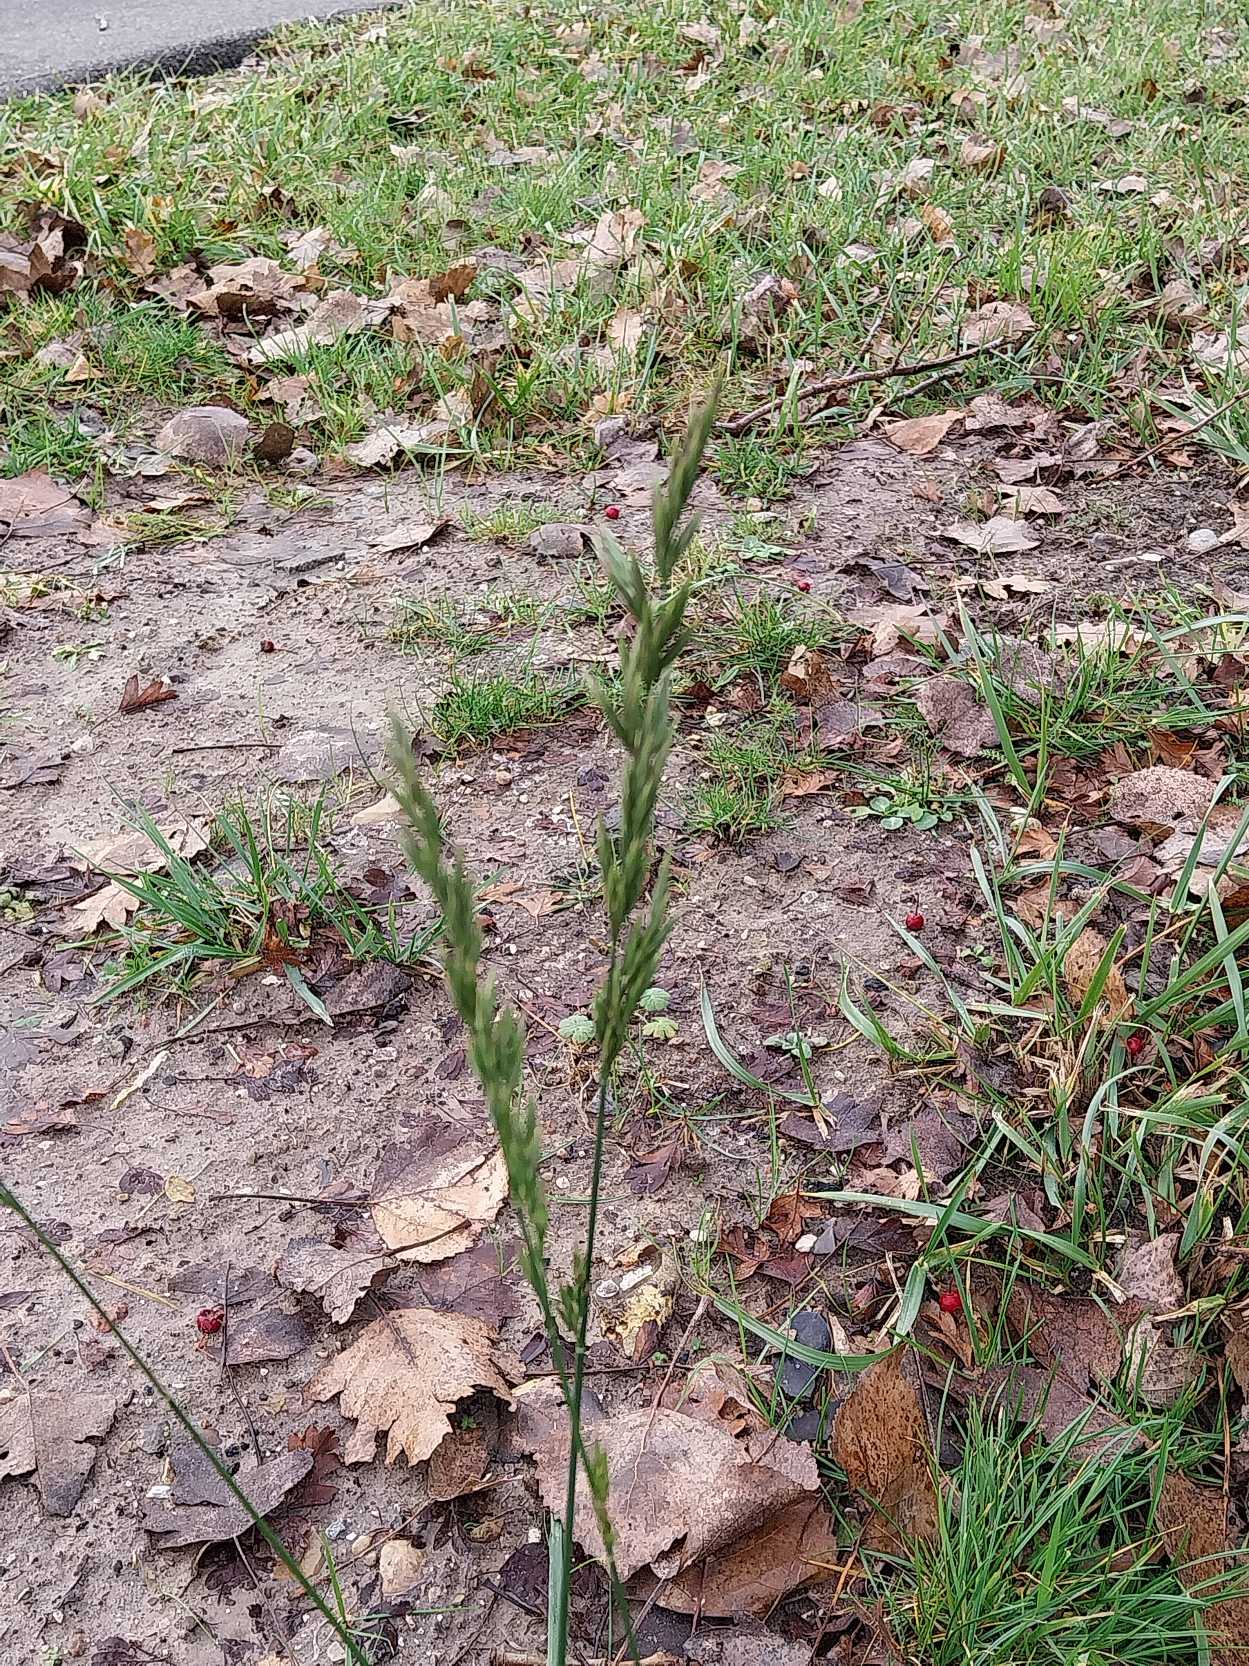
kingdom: Plantae
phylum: Tracheophyta
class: Liliopsida
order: Poales
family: Poaceae
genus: Lolium
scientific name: Lolium arundinaceum
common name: Strand-svingel
